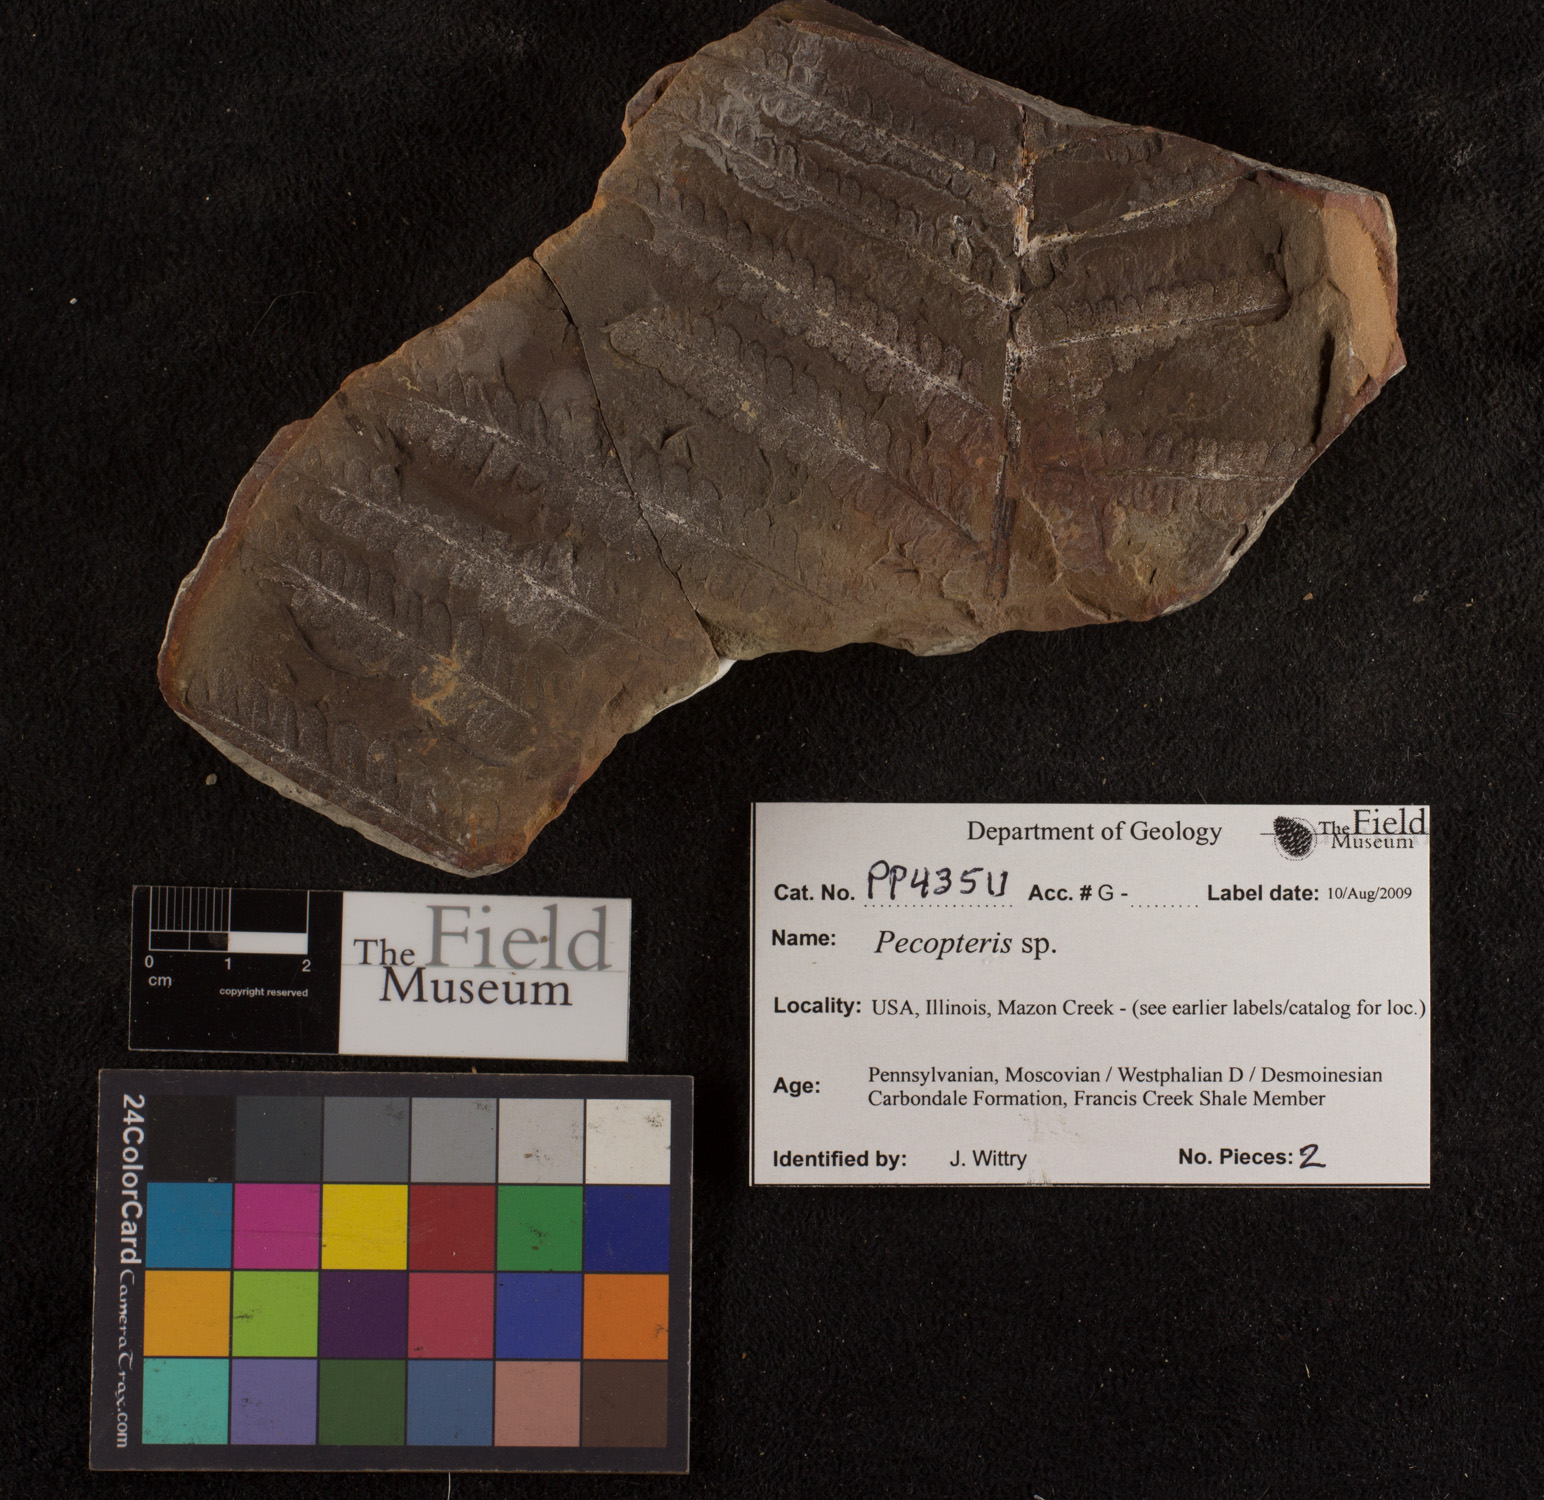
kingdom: Plantae
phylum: Tracheophyta
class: Polypodiopsida
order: Marattiales
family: Asterothecaceae
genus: Pecopteris
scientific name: Pecopteris
